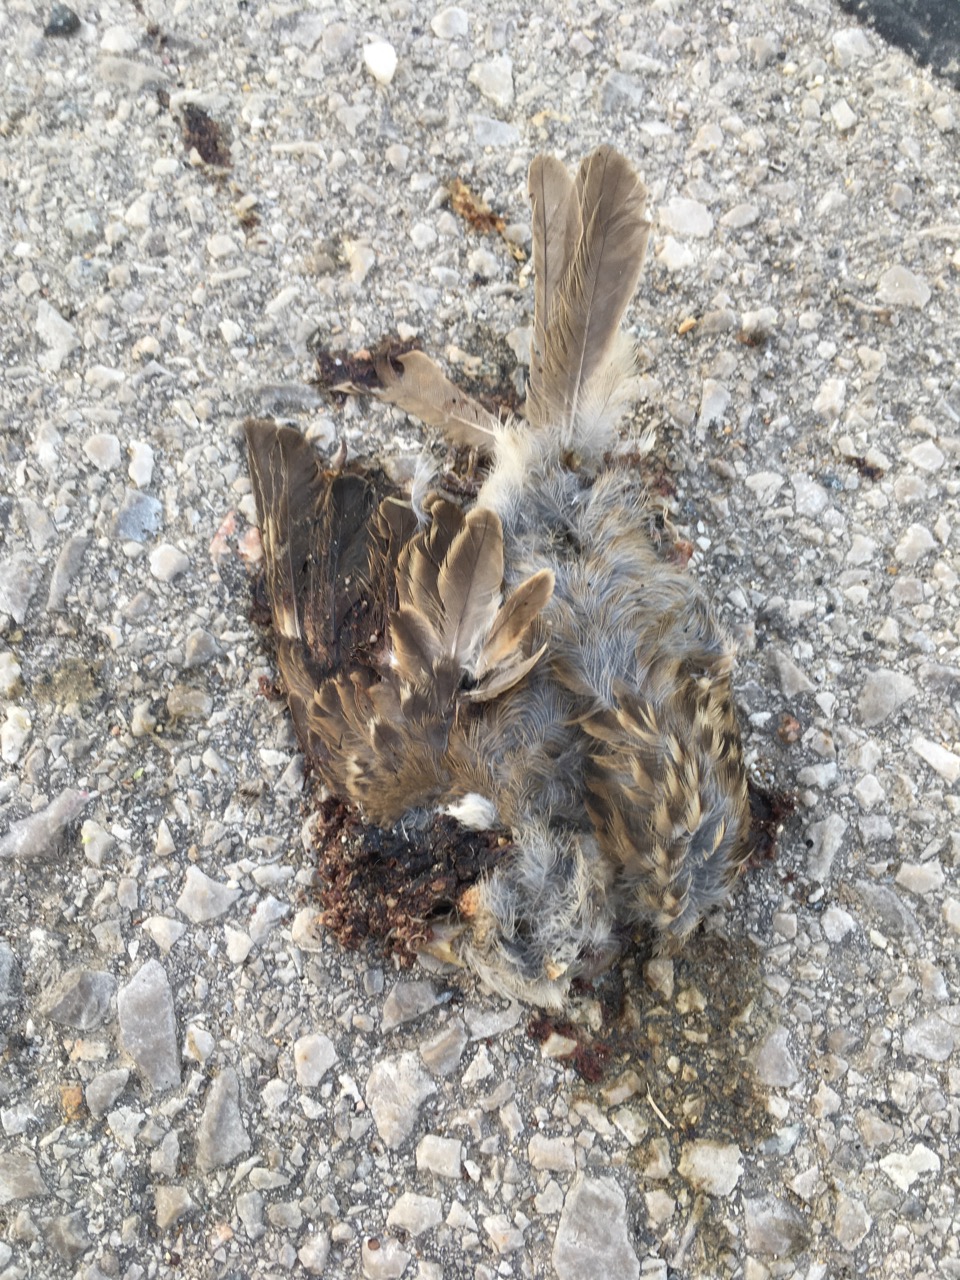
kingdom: Animalia
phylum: Chordata
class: Aves
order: Passeriformes
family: Passeridae
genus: Passer
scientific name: Passer
